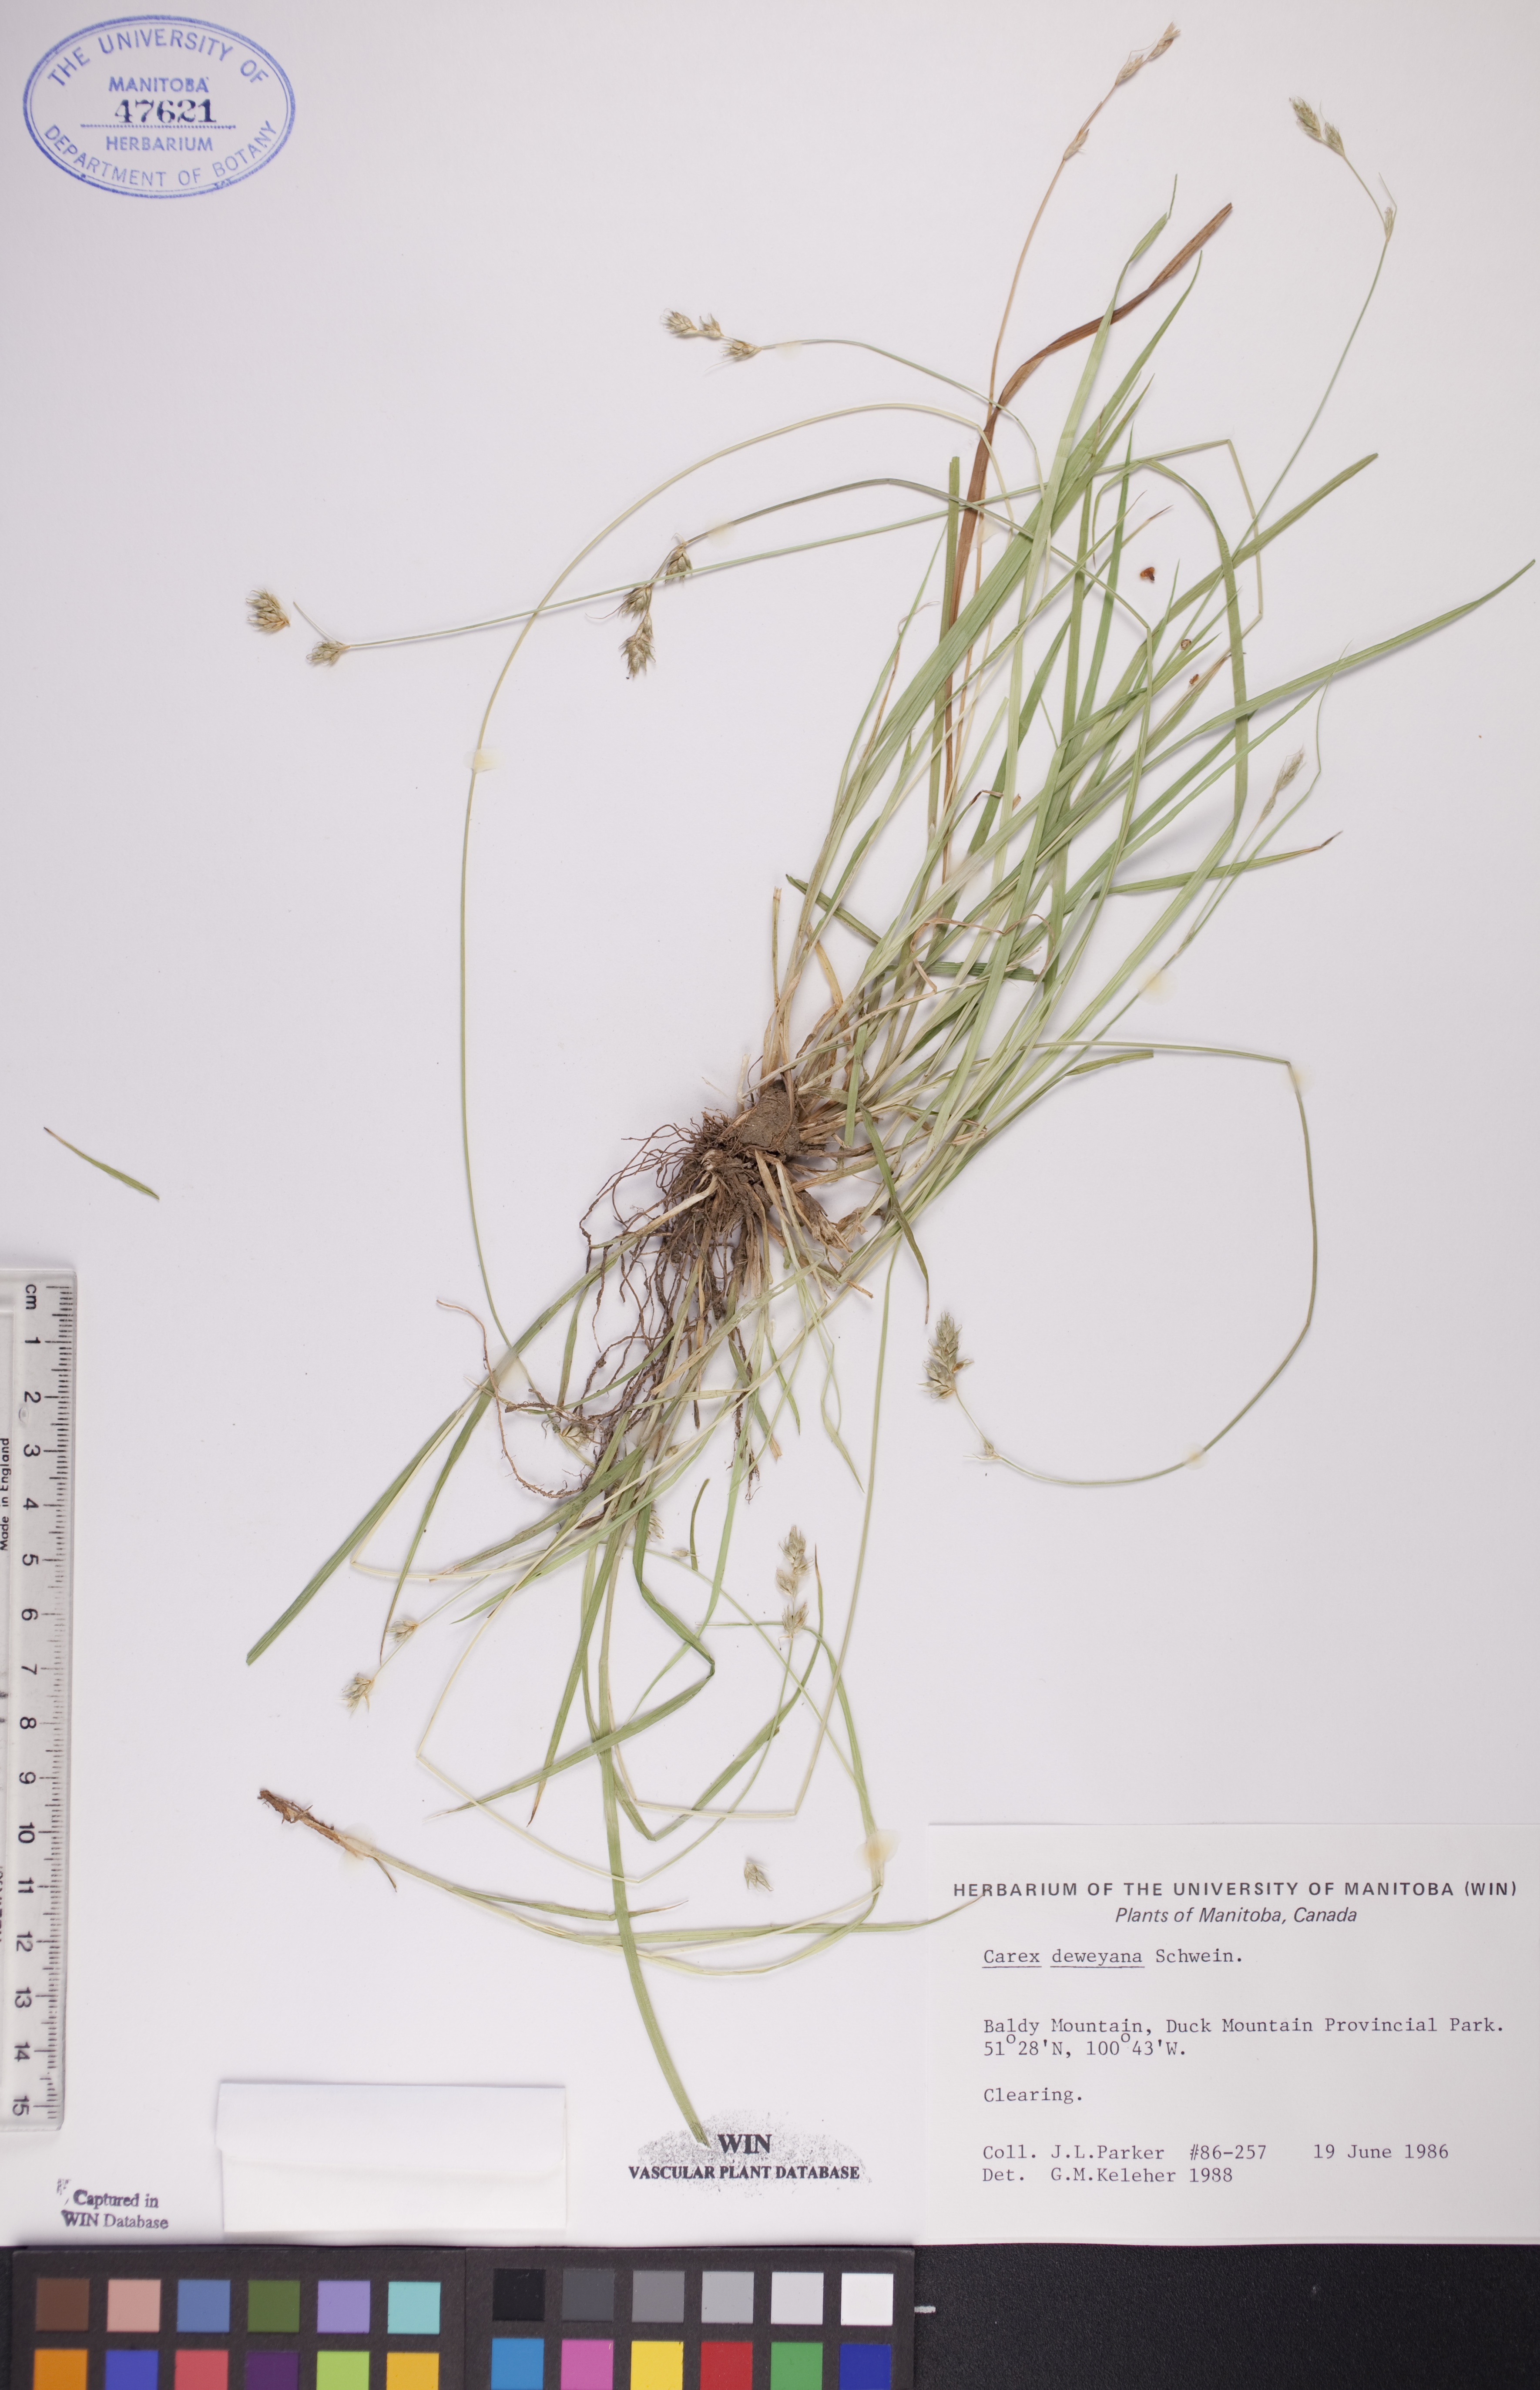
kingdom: Plantae
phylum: Tracheophyta
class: Liliopsida
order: Poales
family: Cyperaceae
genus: Carex
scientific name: Carex deweyana
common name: Dewey's sedge
